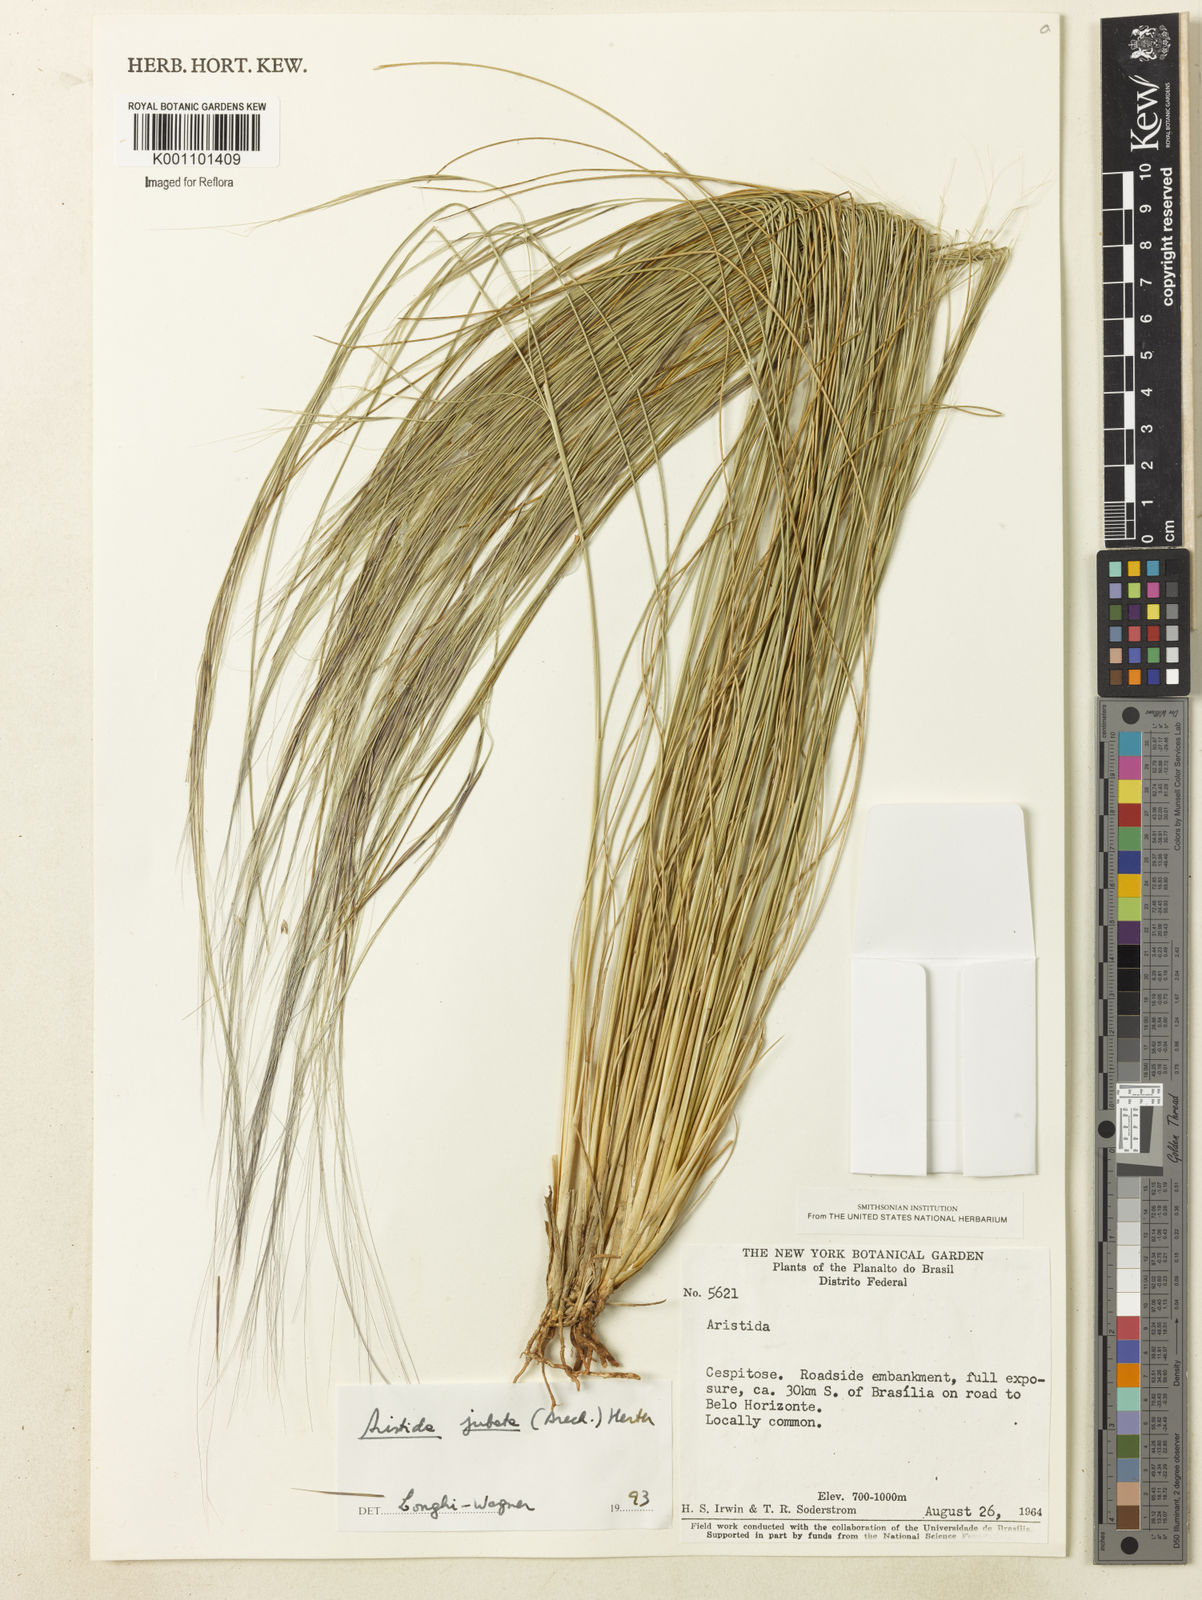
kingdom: Plantae
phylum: Tracheophyta
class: Liliopsida
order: Poales
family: Poaceae
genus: Aristida
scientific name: Aristida jubata
